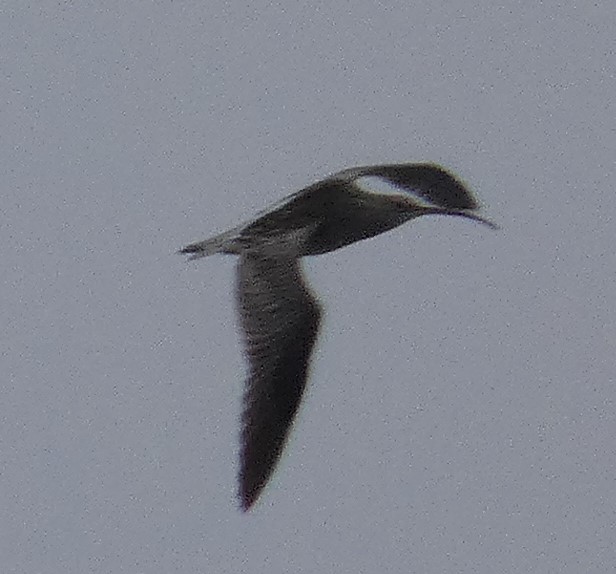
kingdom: Animalia
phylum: Chordata
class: Aves
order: Charadriiformes
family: Scolopacidae
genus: Numenius
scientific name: Numenius arquata
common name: Storspove
